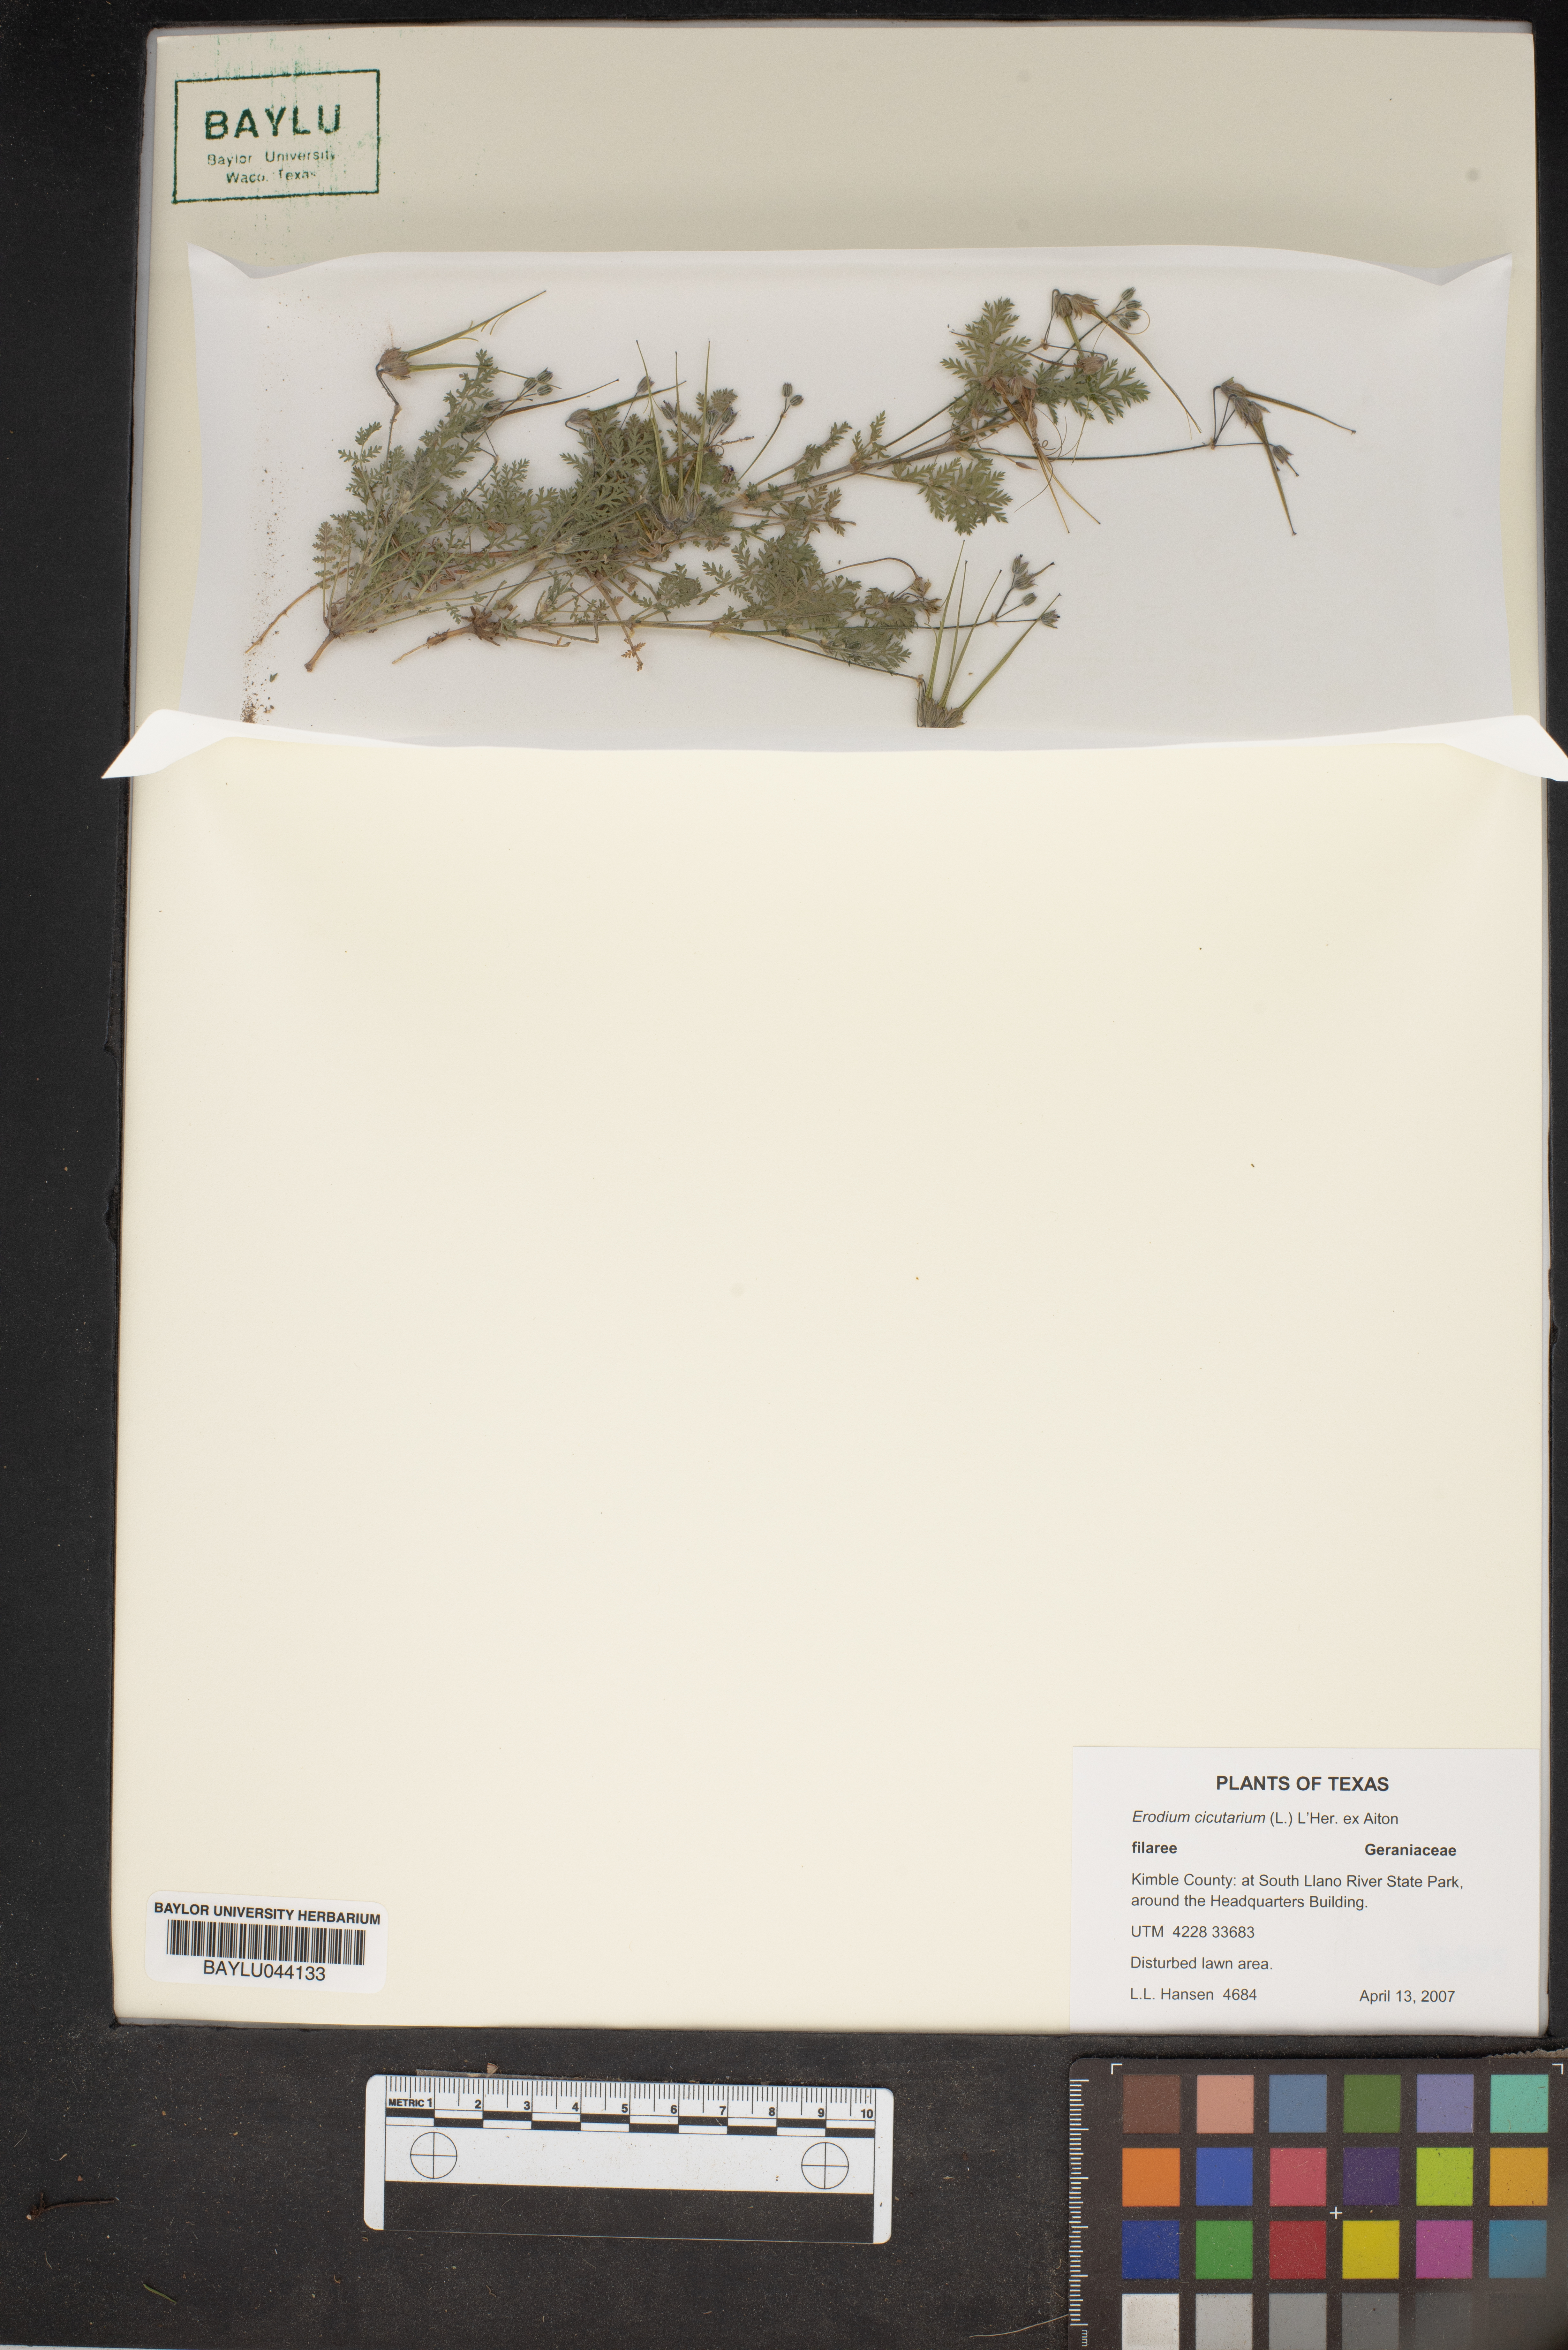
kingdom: Plantae
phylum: Tracheophyta
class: Magnoliopsida
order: Geraniales
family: Geraniaceae
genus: Erodium
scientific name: Erodium cicutarium
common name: Common stork's-bill
